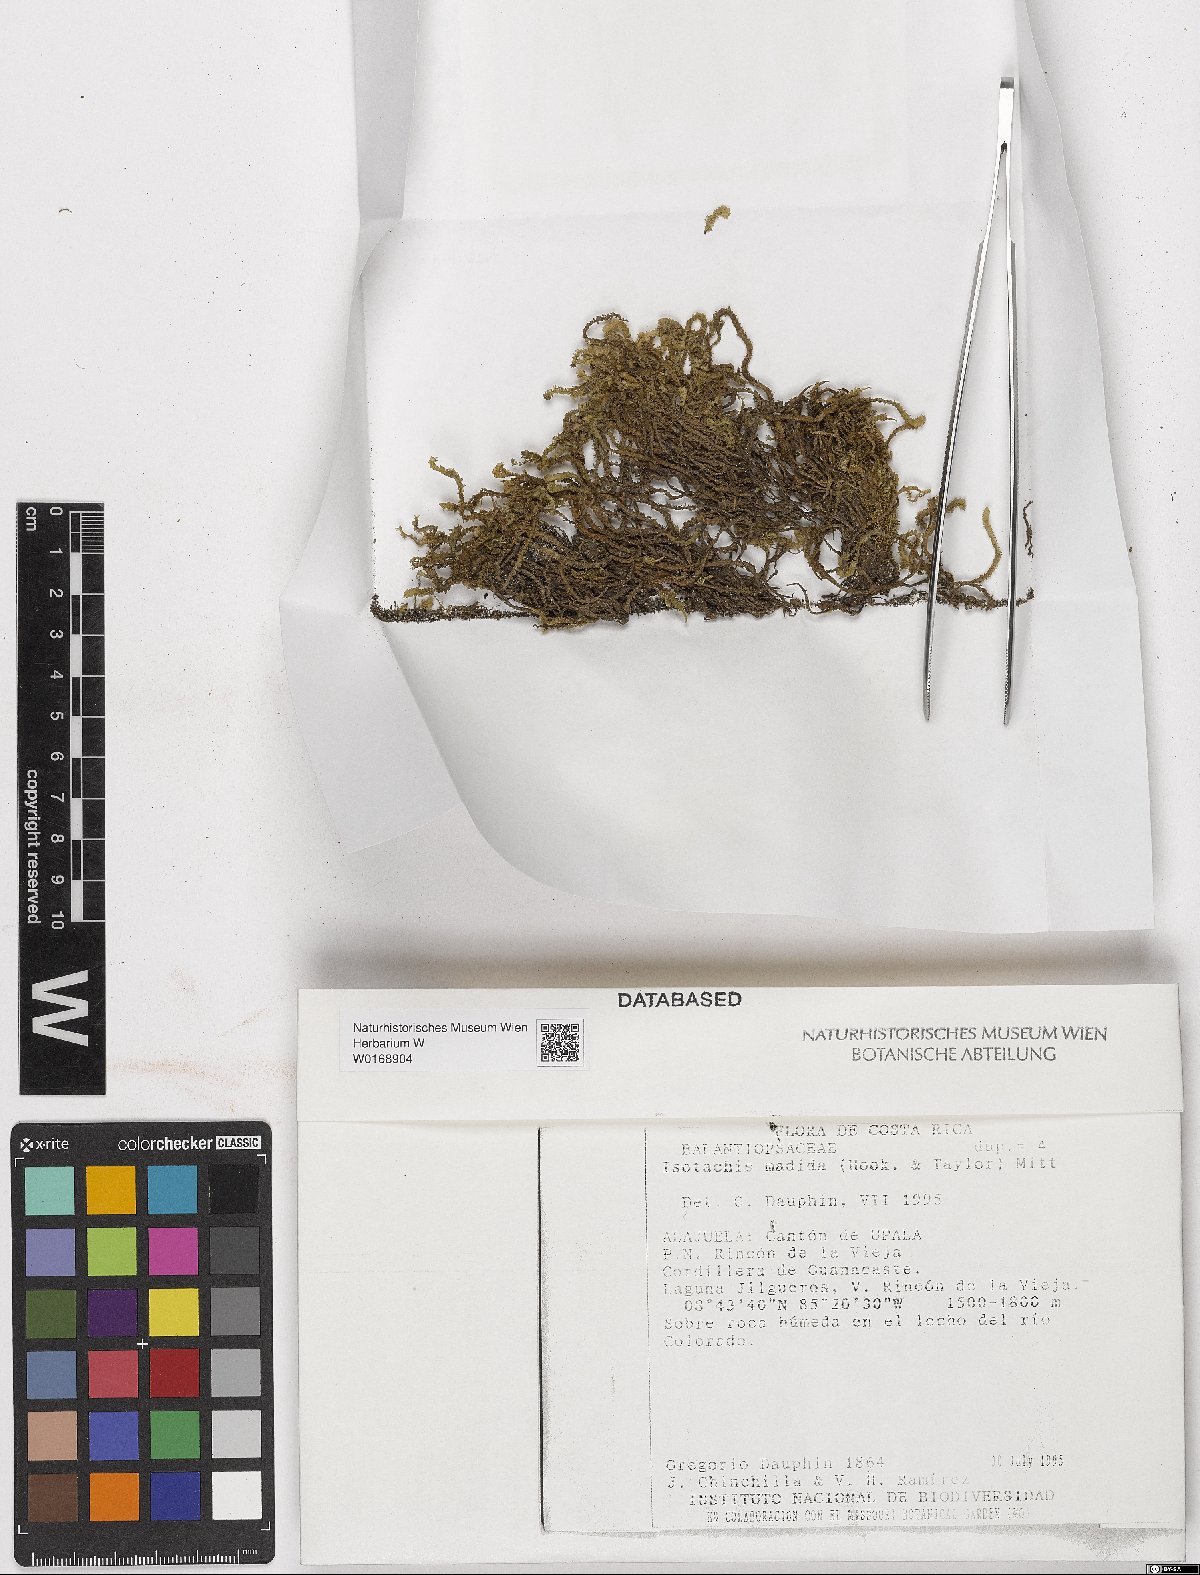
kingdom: Plantae
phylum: Marchantiophyta
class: Jungermanniopsida
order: Jungermanniales
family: Balantiopsidaceae
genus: Isotachis
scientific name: Isotachis
